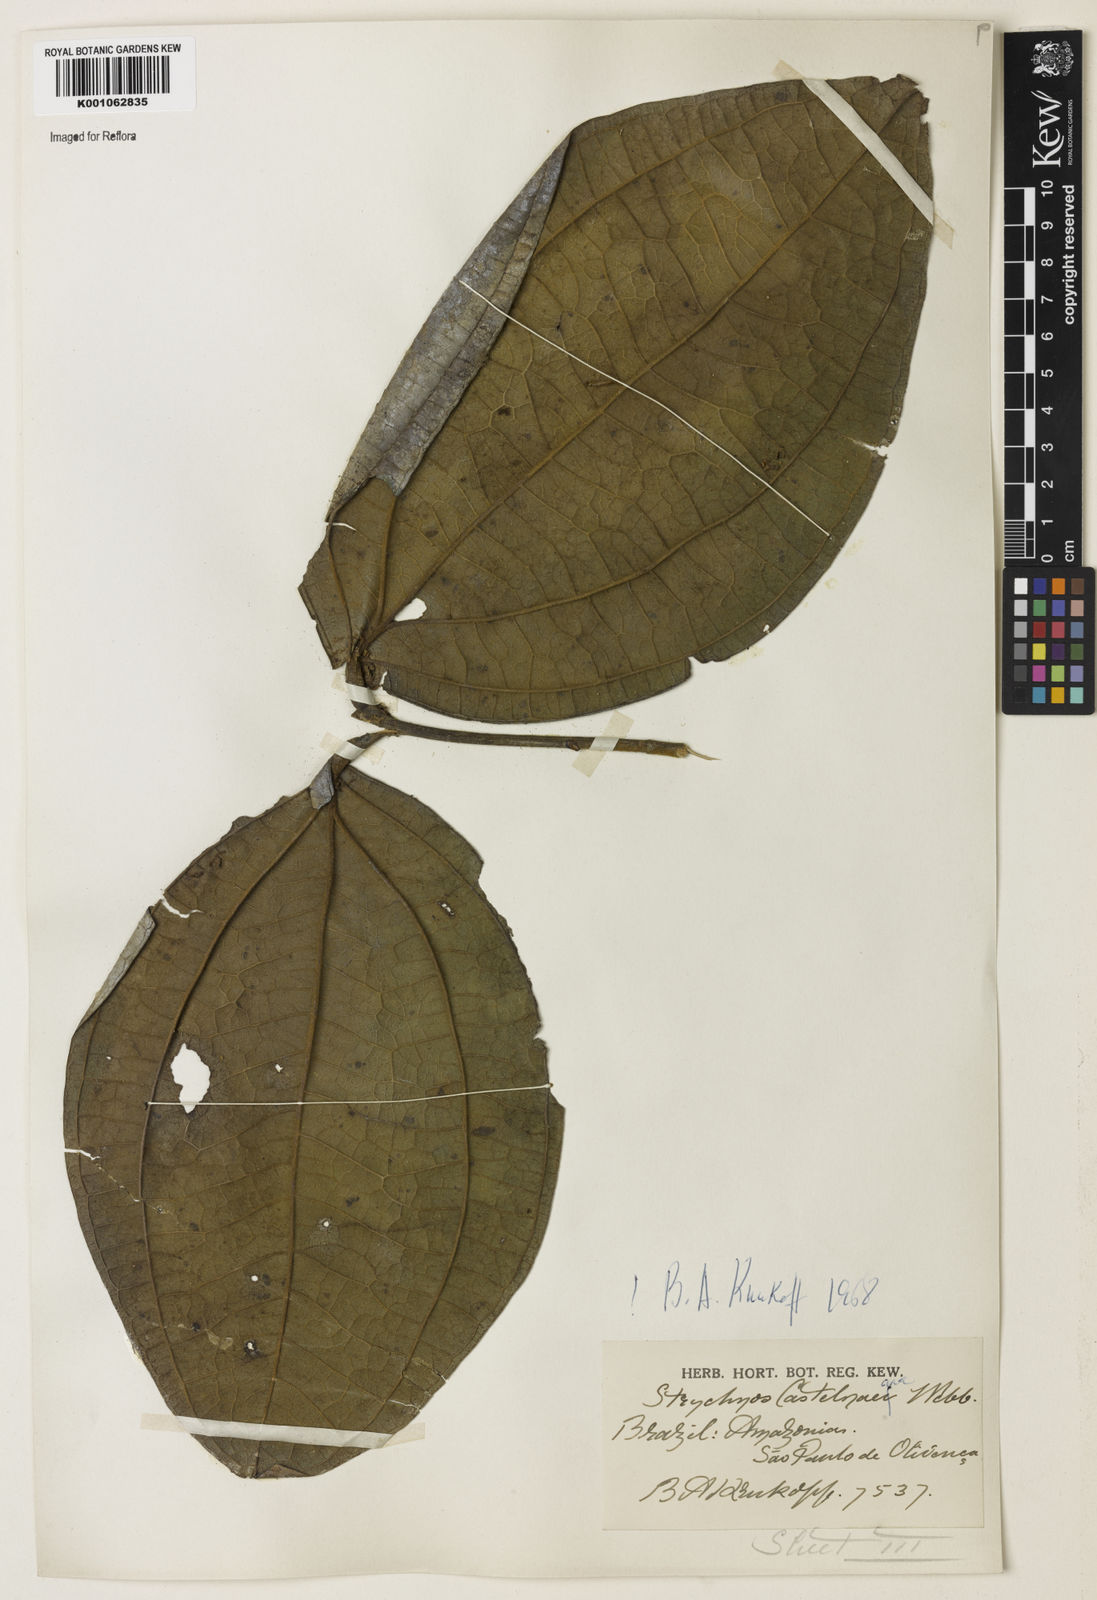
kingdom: Plantae
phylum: Tracheophyta
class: Magnoliopsida
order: Gentianales
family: Loganiaceae
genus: Strychnos
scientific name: Strychnos
